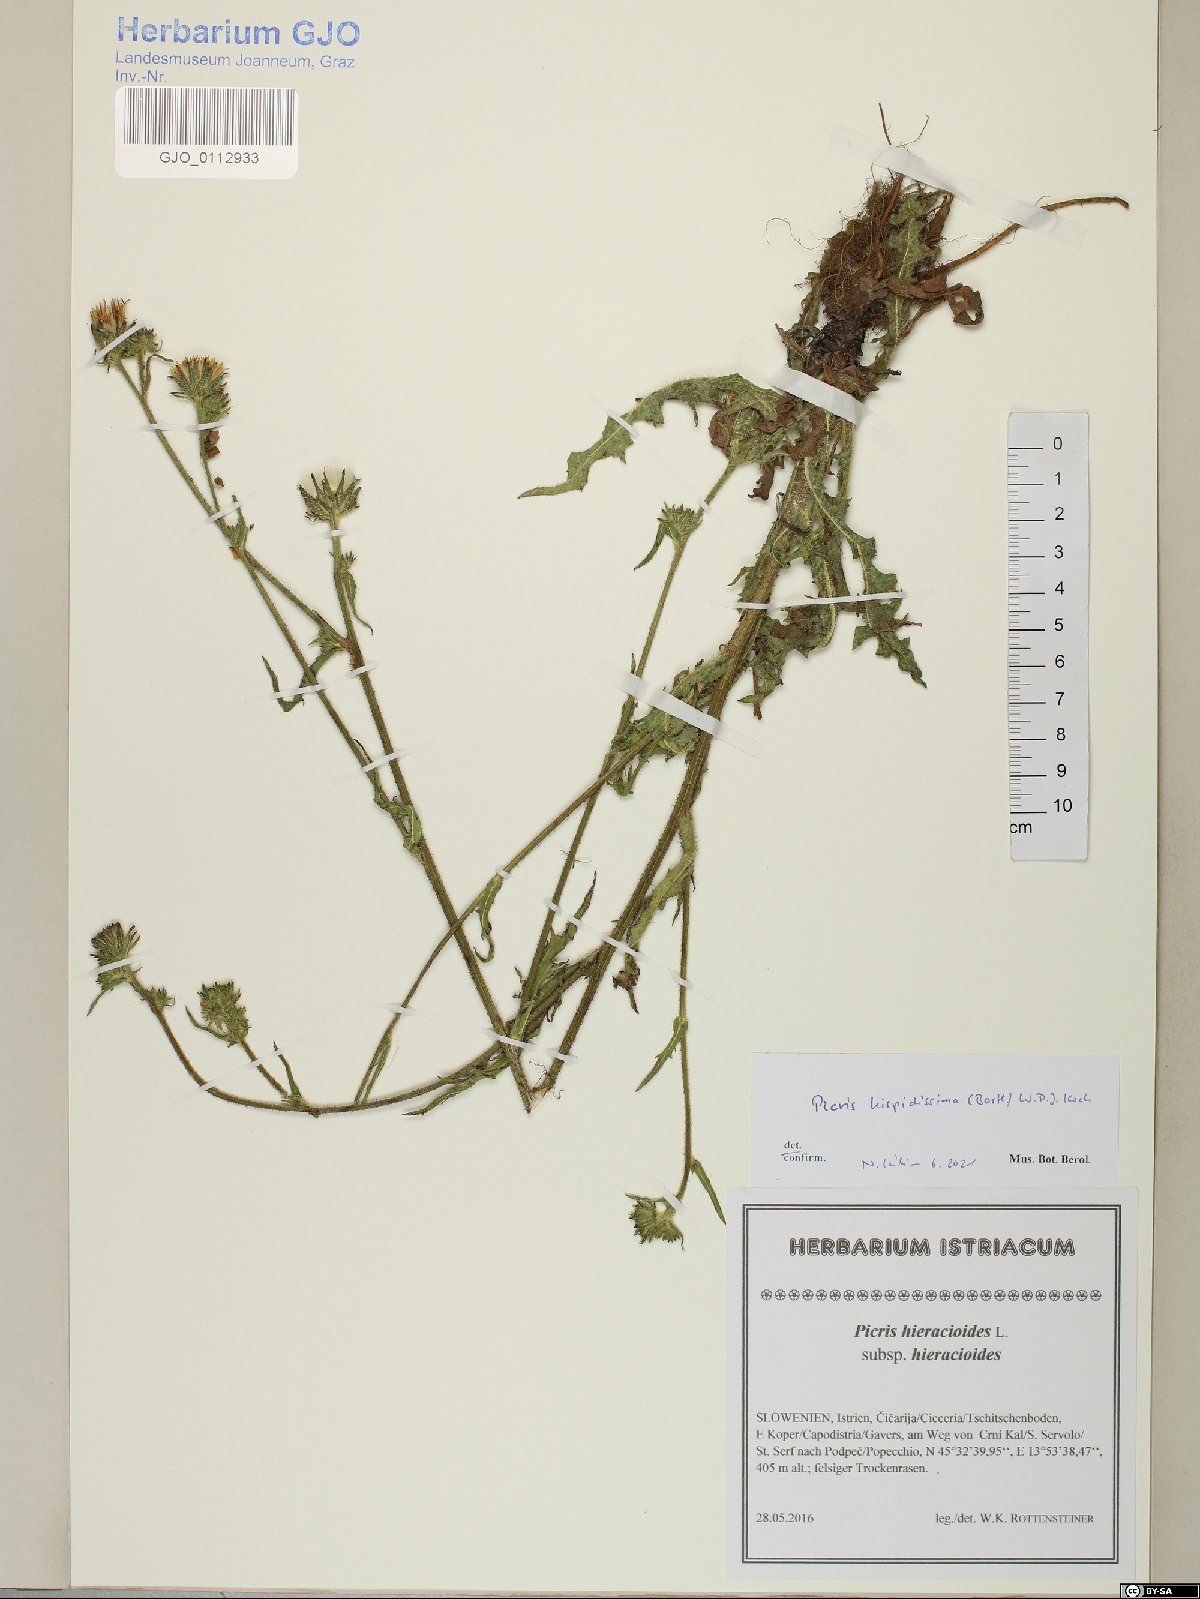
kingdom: Plantae
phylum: Tracheophyta
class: Magnoliopsida
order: Asterales
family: Asteraceae
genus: Picris
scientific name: Picris hispidissima
